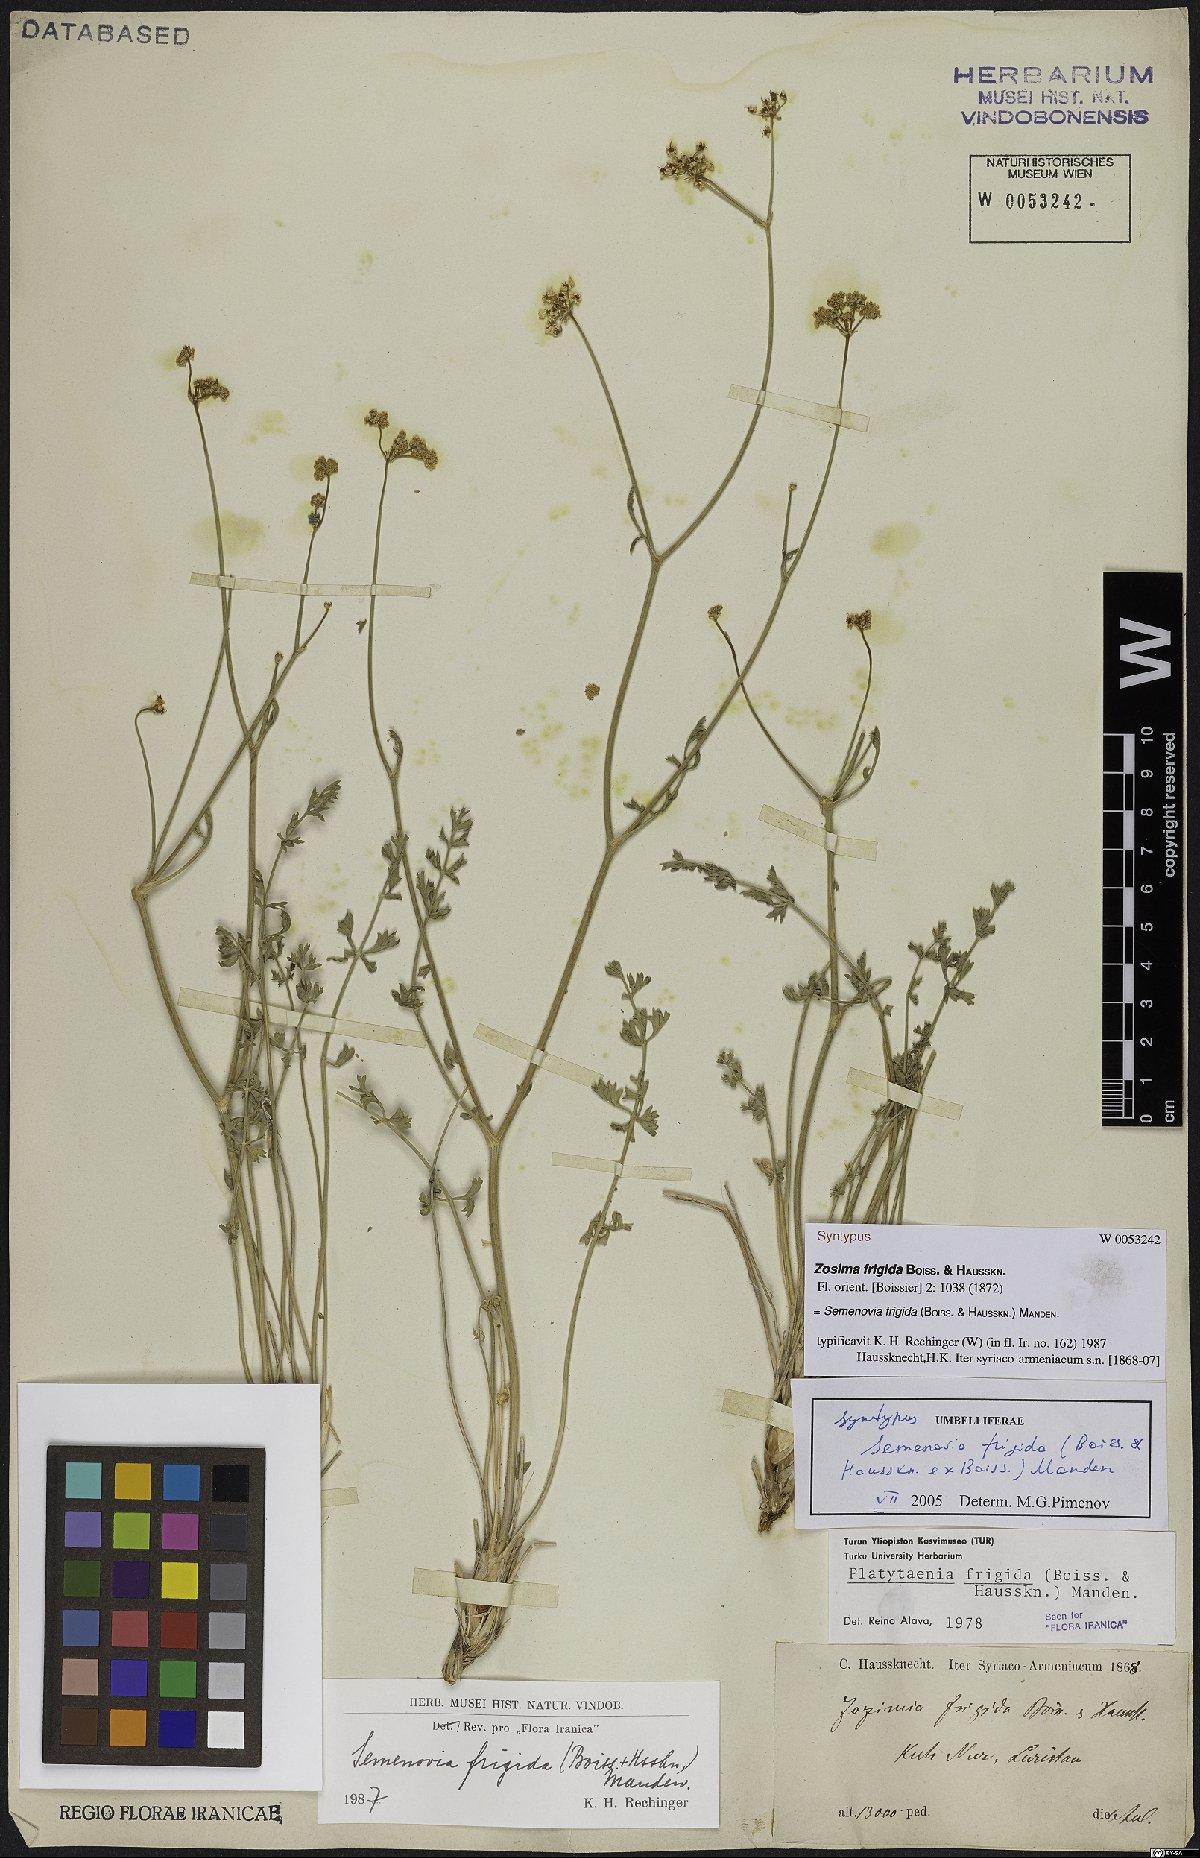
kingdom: Plantae
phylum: Tracheophyta
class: Magnoliopsida
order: Apiales
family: Apiaceae
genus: Semenovia
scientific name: Semenovia frigida
